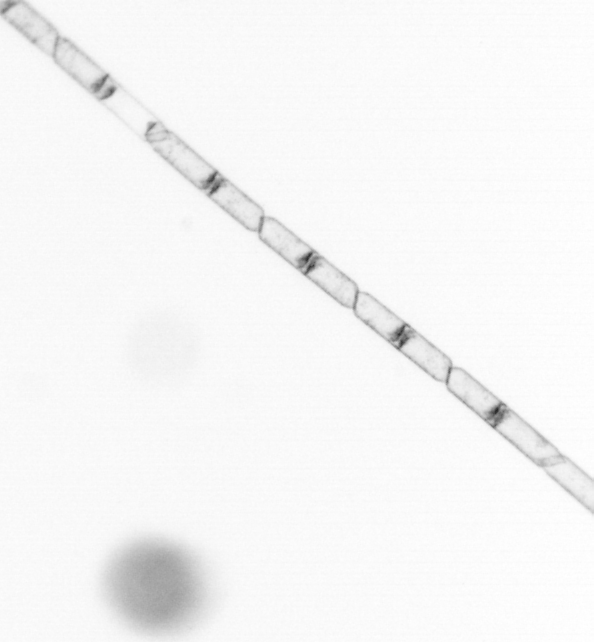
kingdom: Chromista
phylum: Ochrophyta
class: Bacillariophyceae
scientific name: Bacillariophyceae
